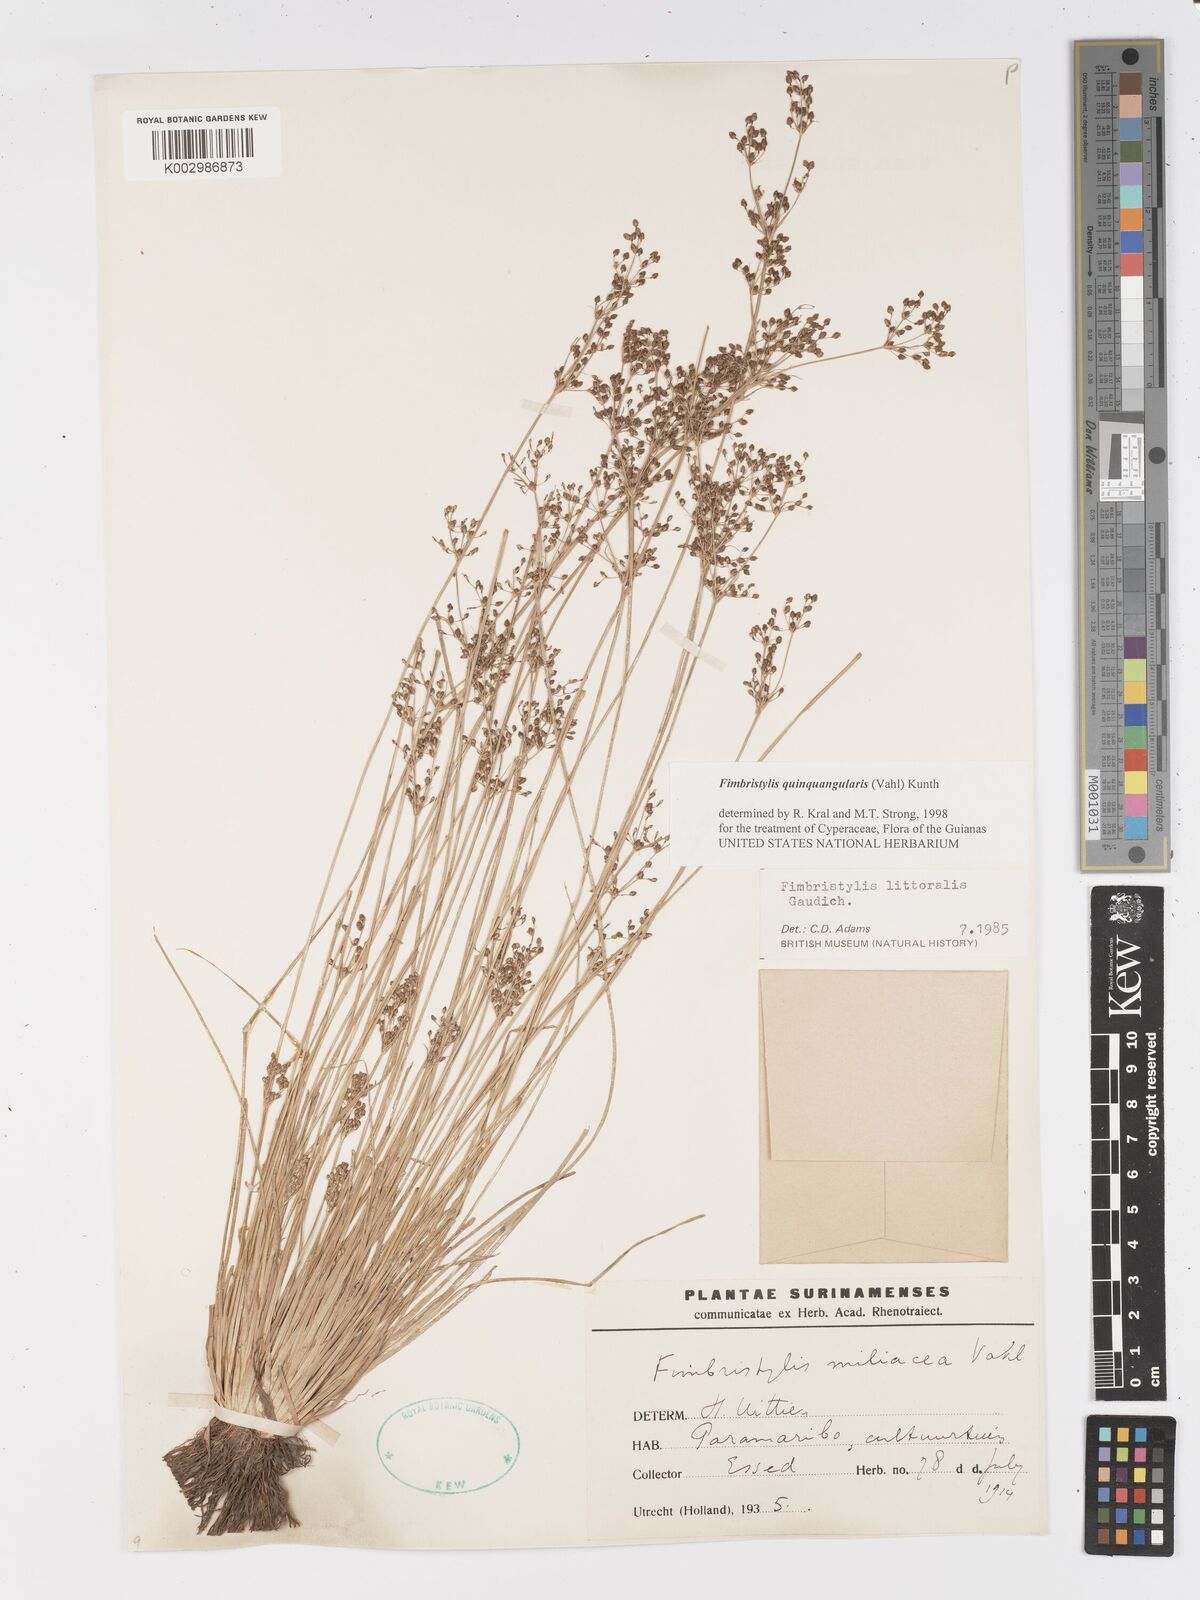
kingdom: Plantae
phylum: Tracheophyta
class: Liliopsida
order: Poales
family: Cyperaceae
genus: Fimbristylis
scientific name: Fimbristylis quinquangularis
